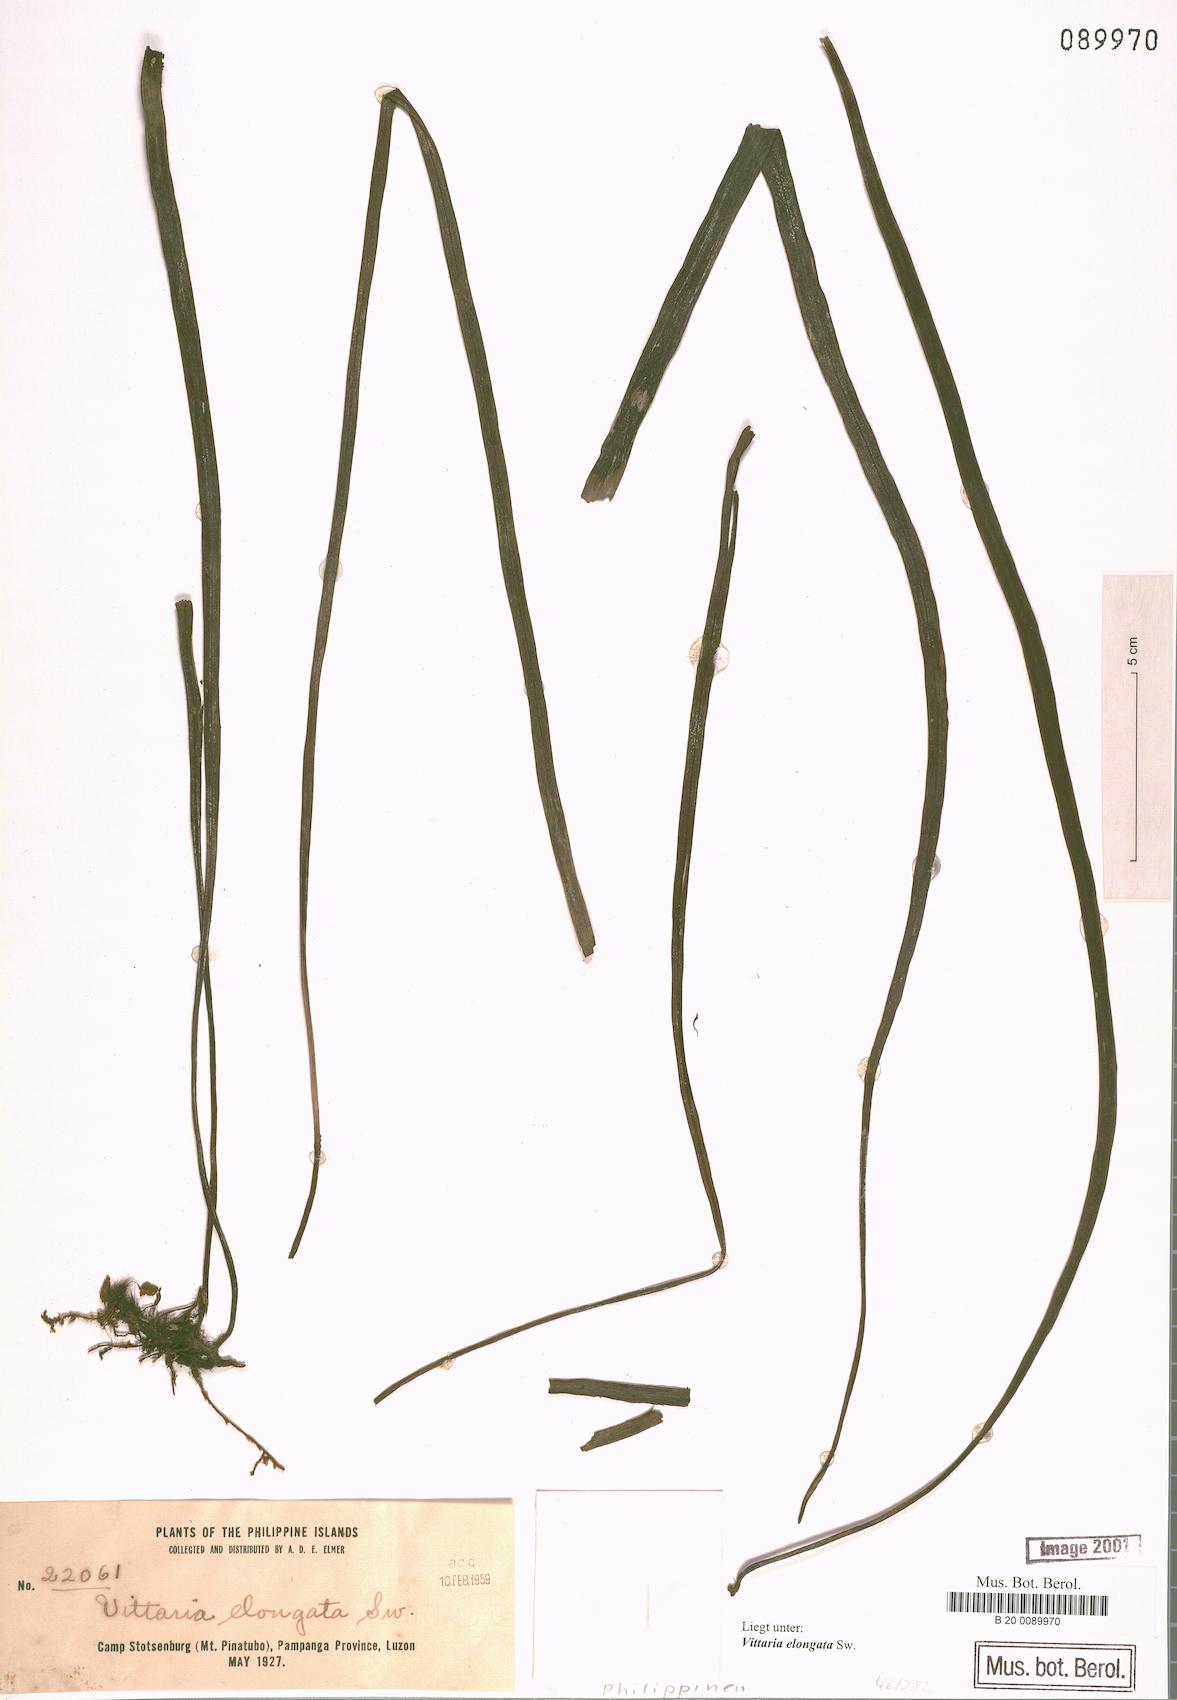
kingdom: Plantae
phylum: Tracheophyta
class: Polypodiopsida
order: Polypodiales
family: Pteridaceae
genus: Haplopteris
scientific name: Haplopteris elongata
